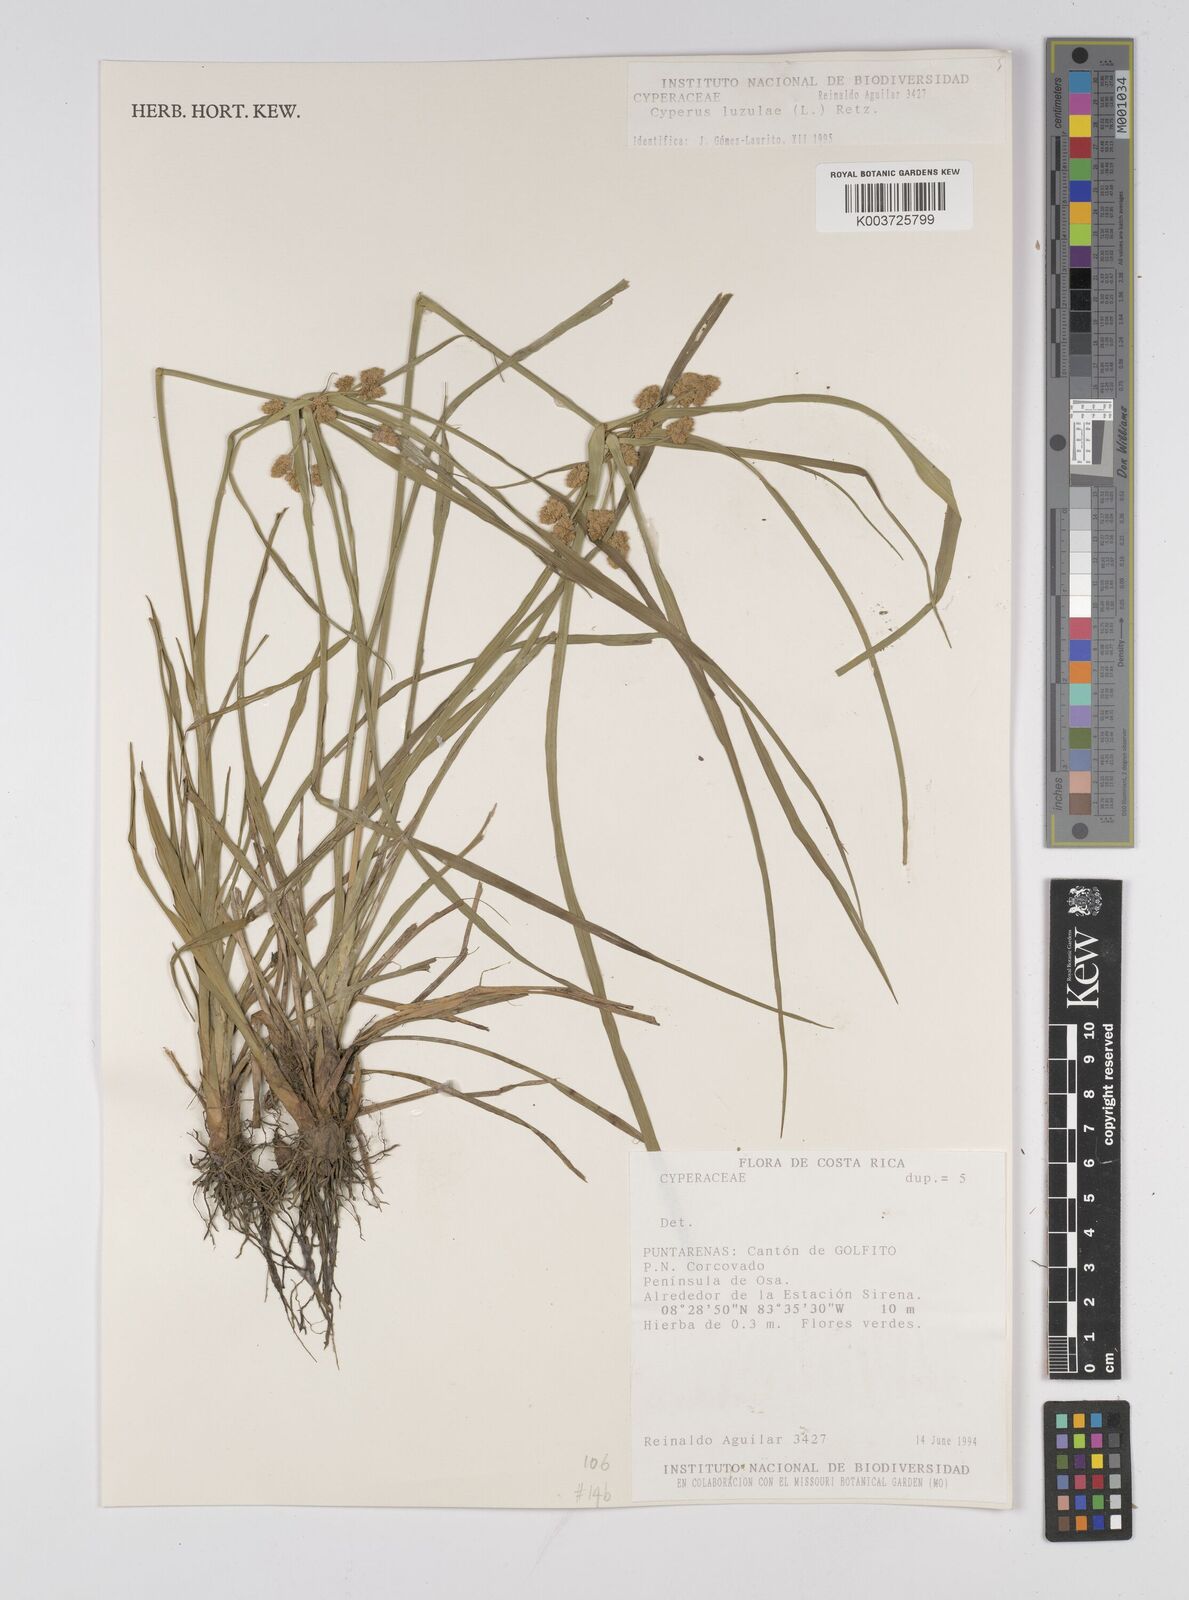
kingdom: Plantae
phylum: Tracheophyta
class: Liliopsida
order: Poales
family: Cyperaceae
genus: Cyperus
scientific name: Cyperus luzulae
